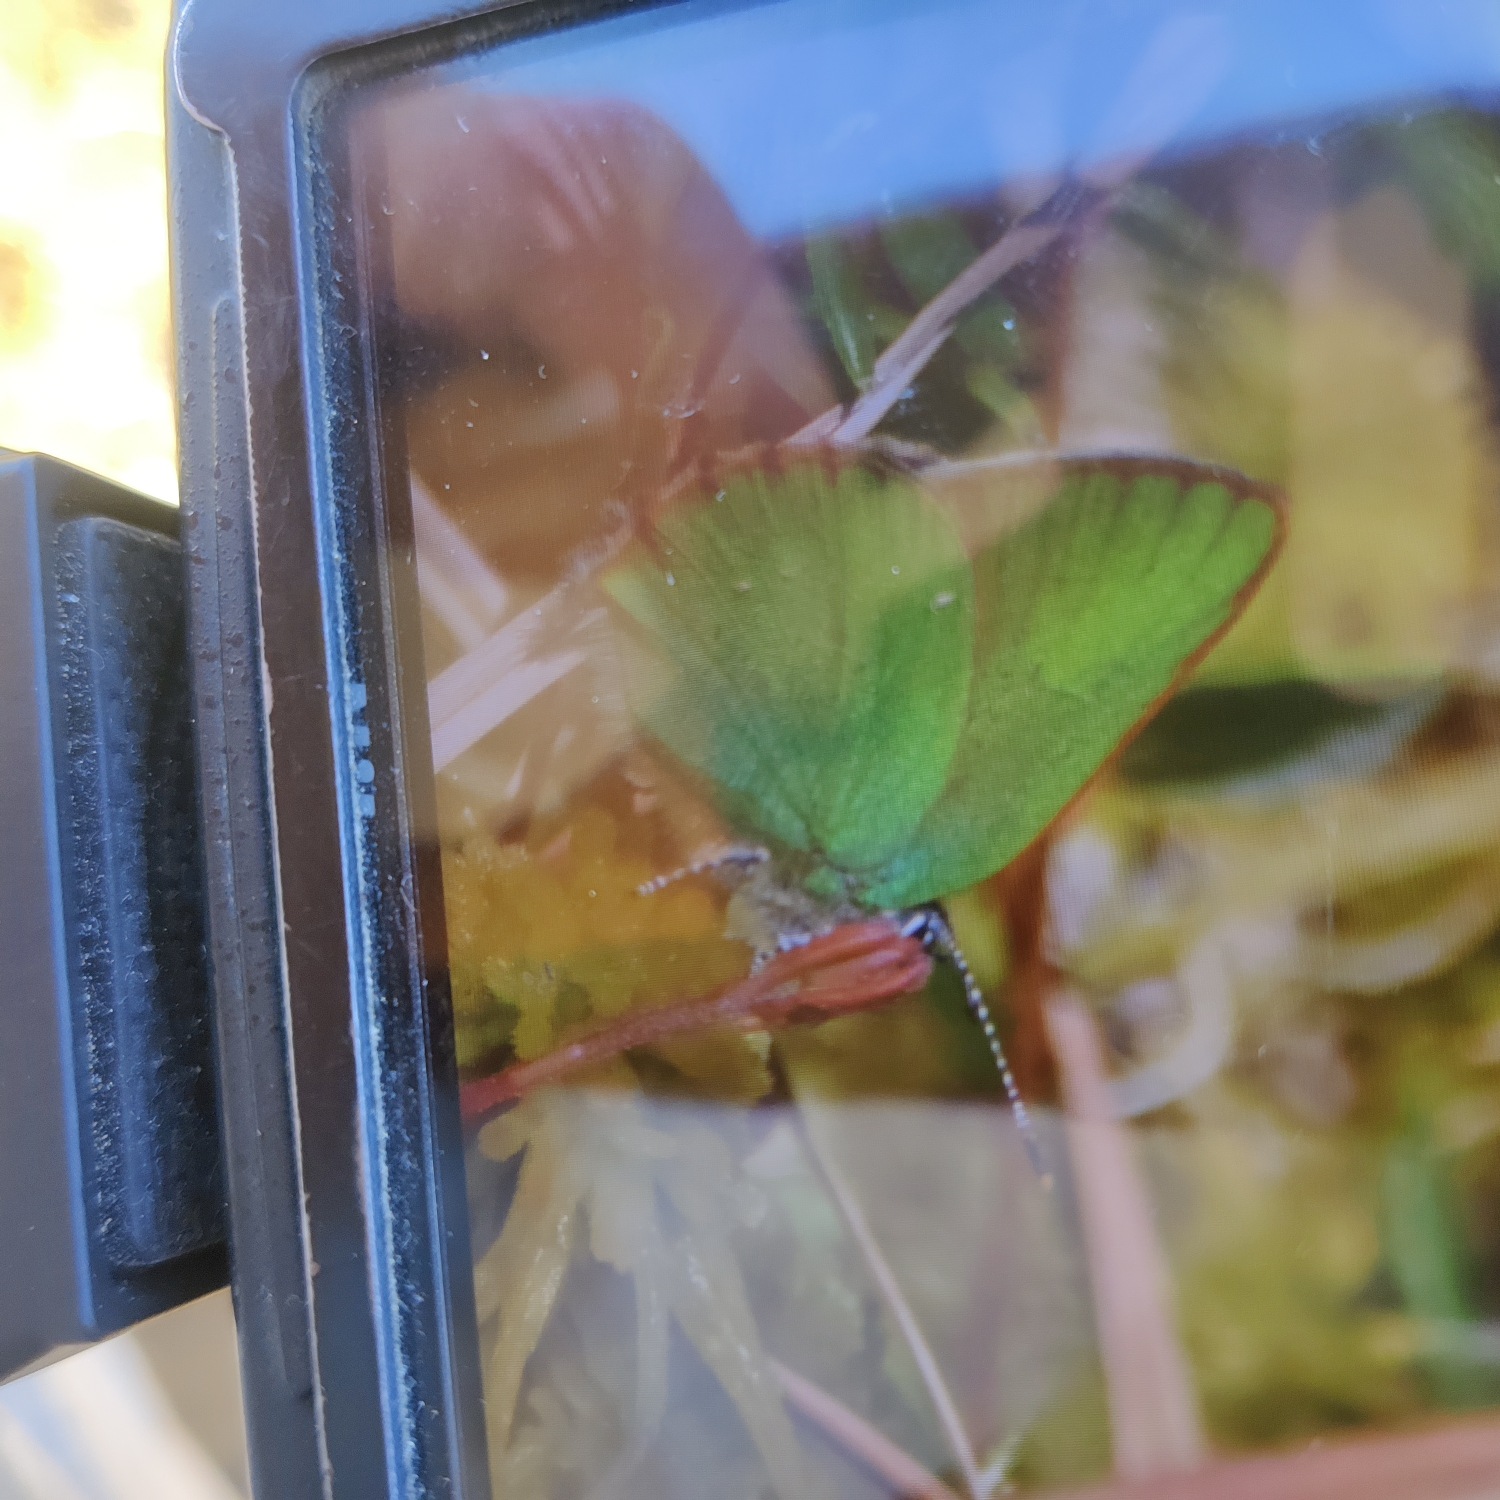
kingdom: Animalia
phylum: Arthropoda
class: Insecta
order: Lepidoptera
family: Lycaenidae
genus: Callophrys
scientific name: Callophrys rubi
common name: Grøn busksommerfugl
